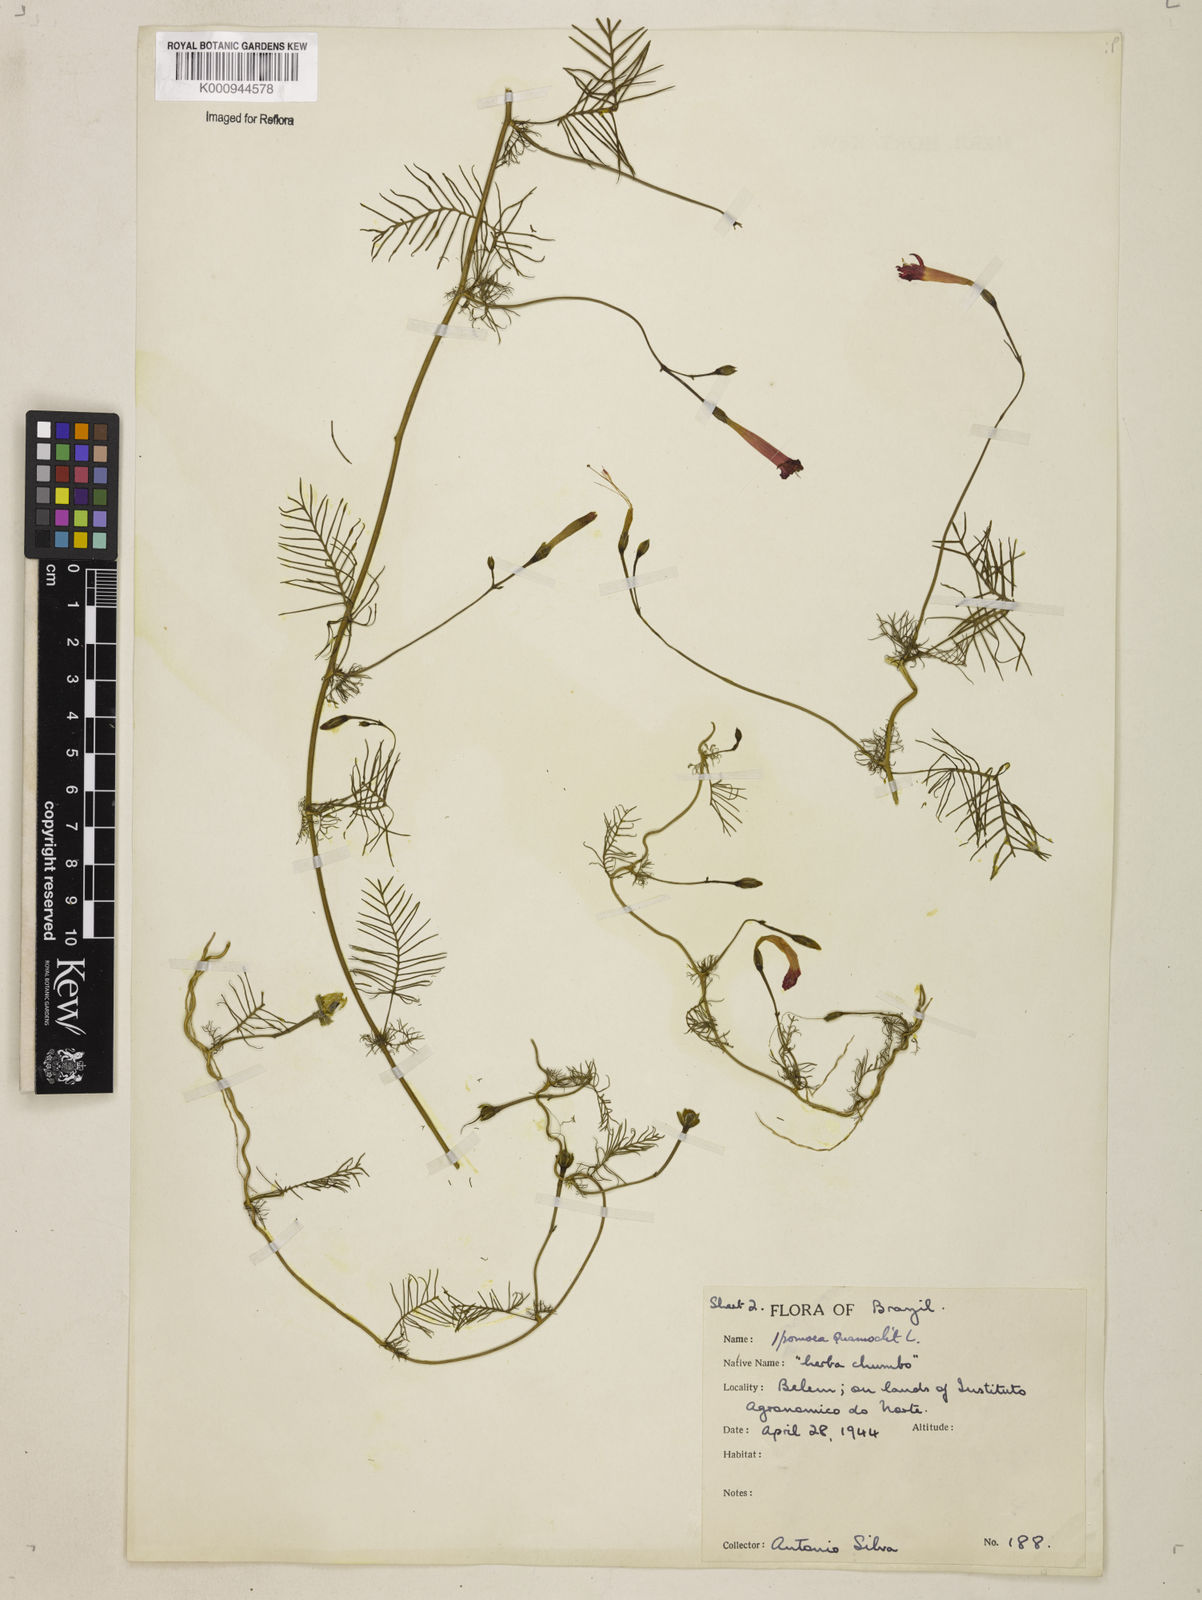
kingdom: Plantae
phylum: Tracheophyta
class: Magnoliopsida
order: Solanales
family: Convolvulaceae
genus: Ipomoea
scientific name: Ipomoea quamoclit
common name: Cypress vine
